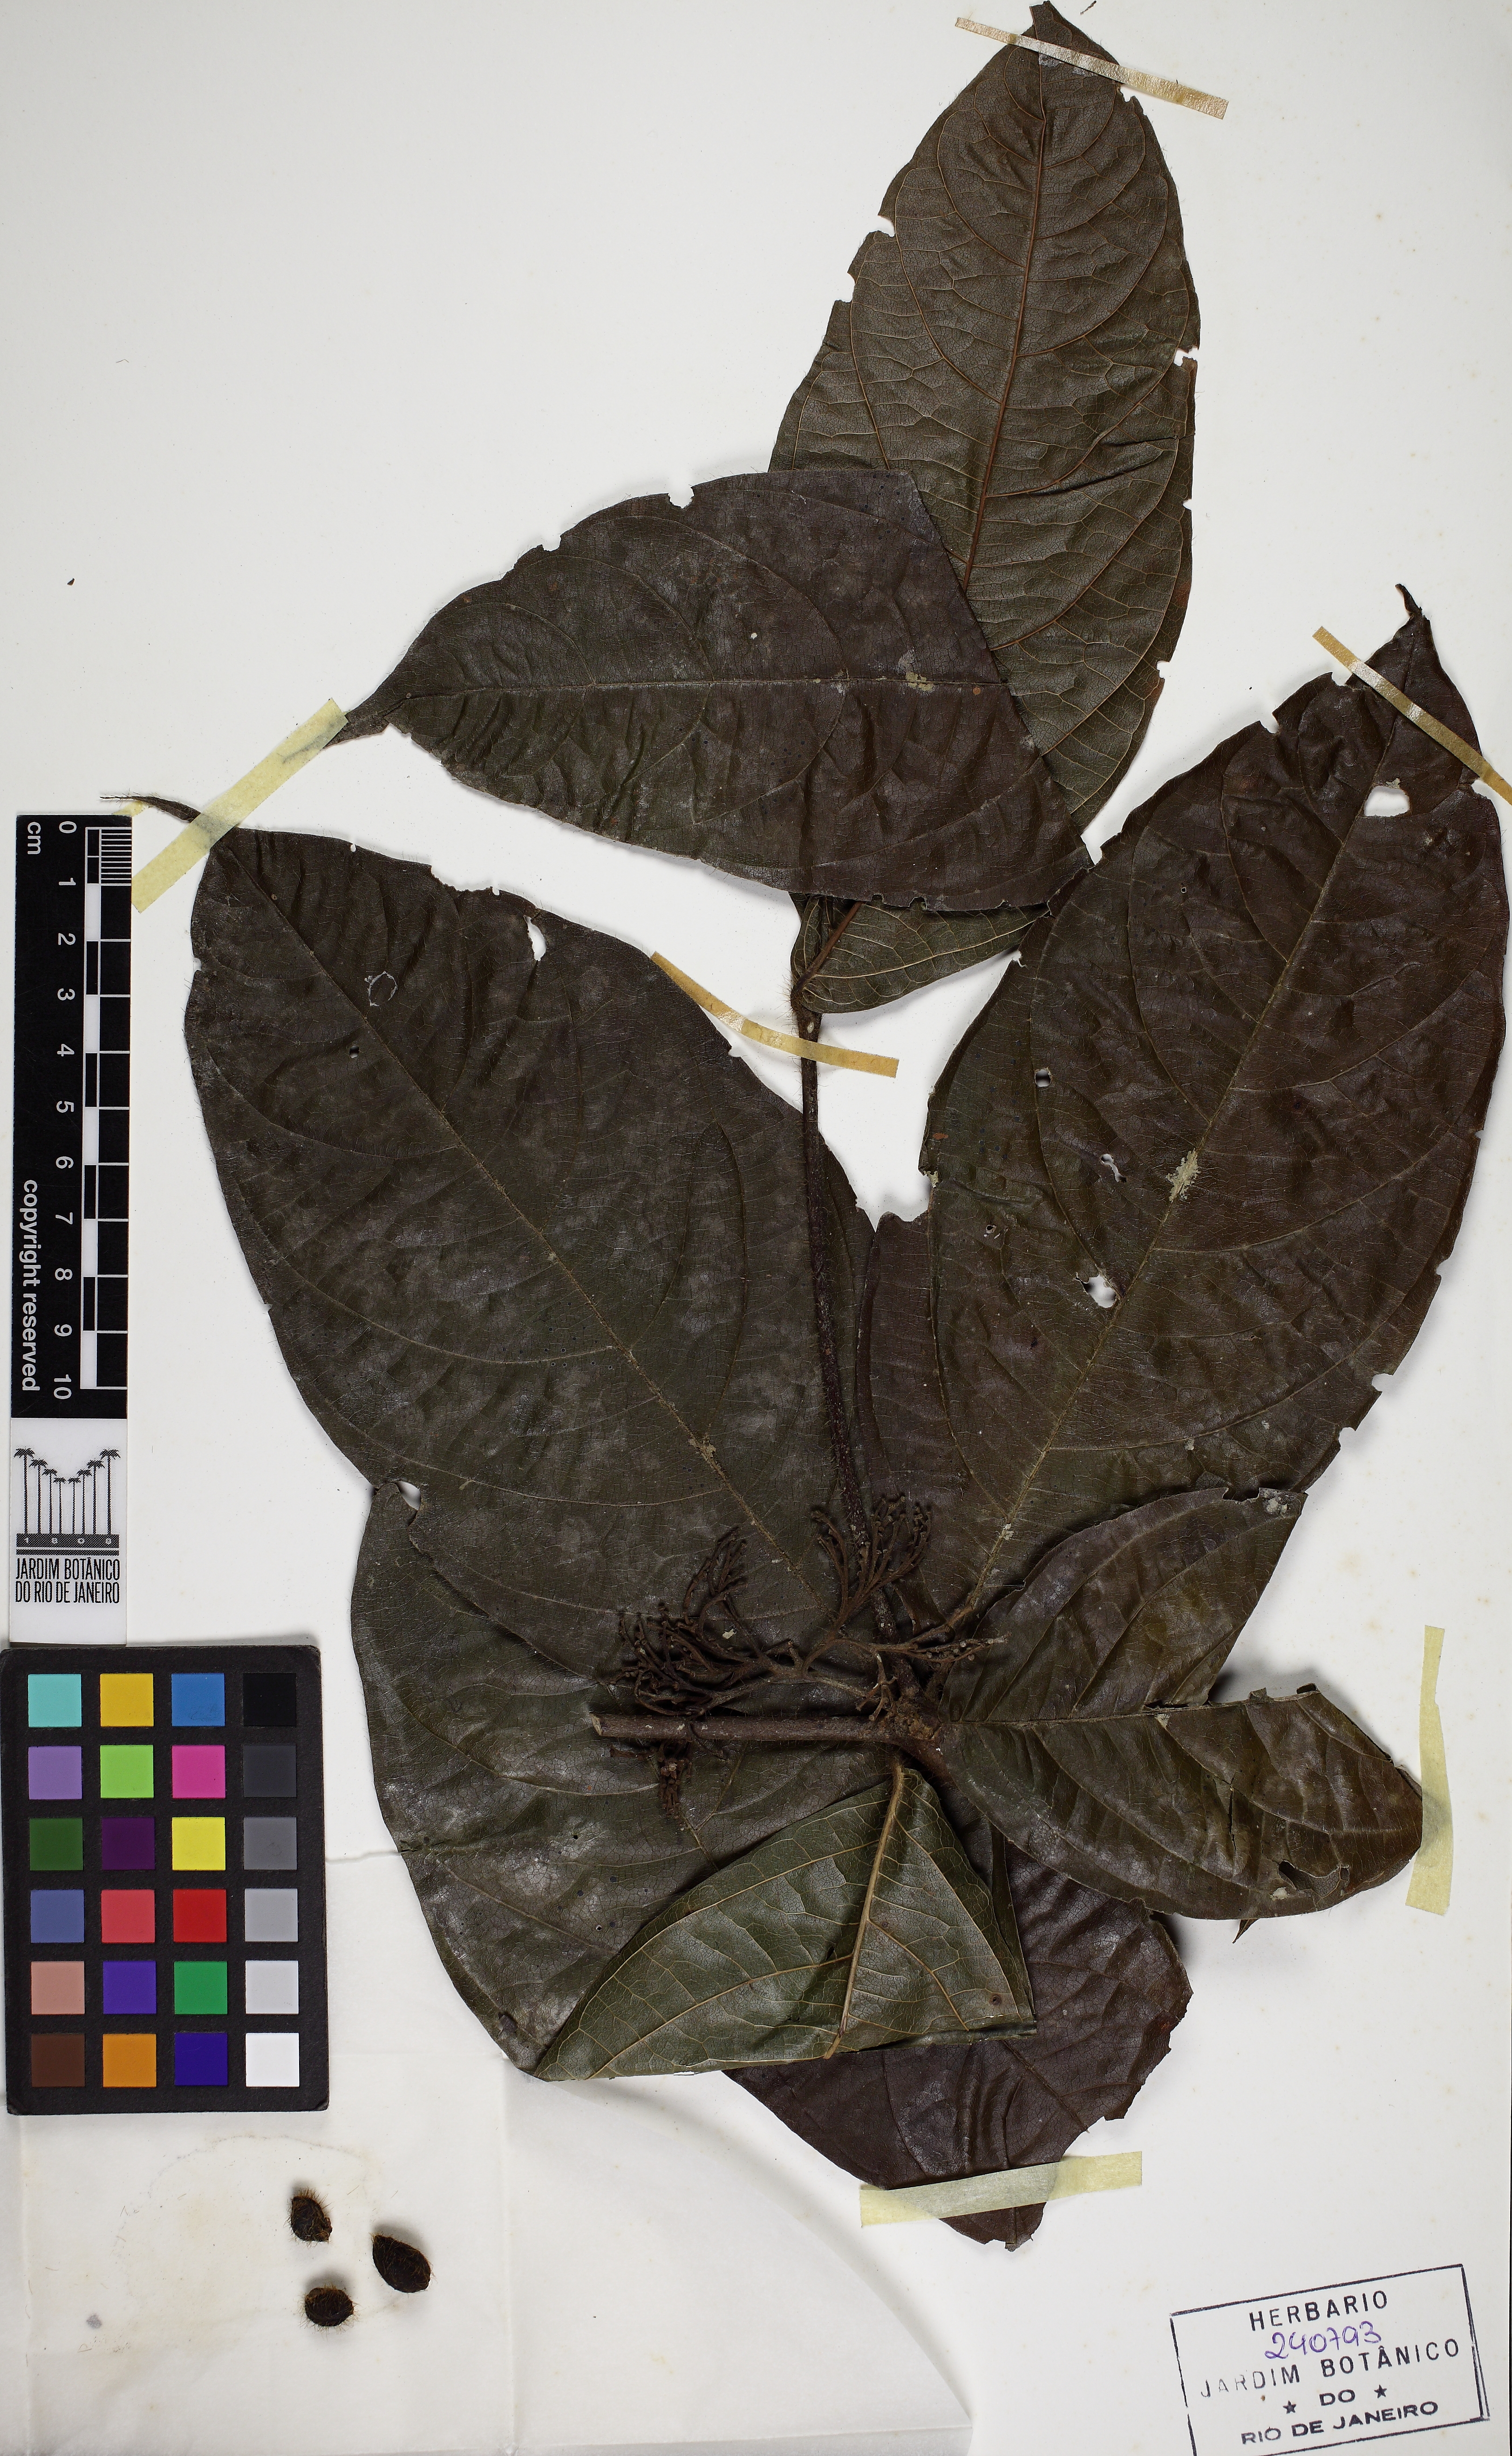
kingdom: Plantae
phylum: Tracheophyta
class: Magnoliopsida
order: Boraginales
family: Cordiaceae
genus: Cordia
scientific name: Cordia nodosa
